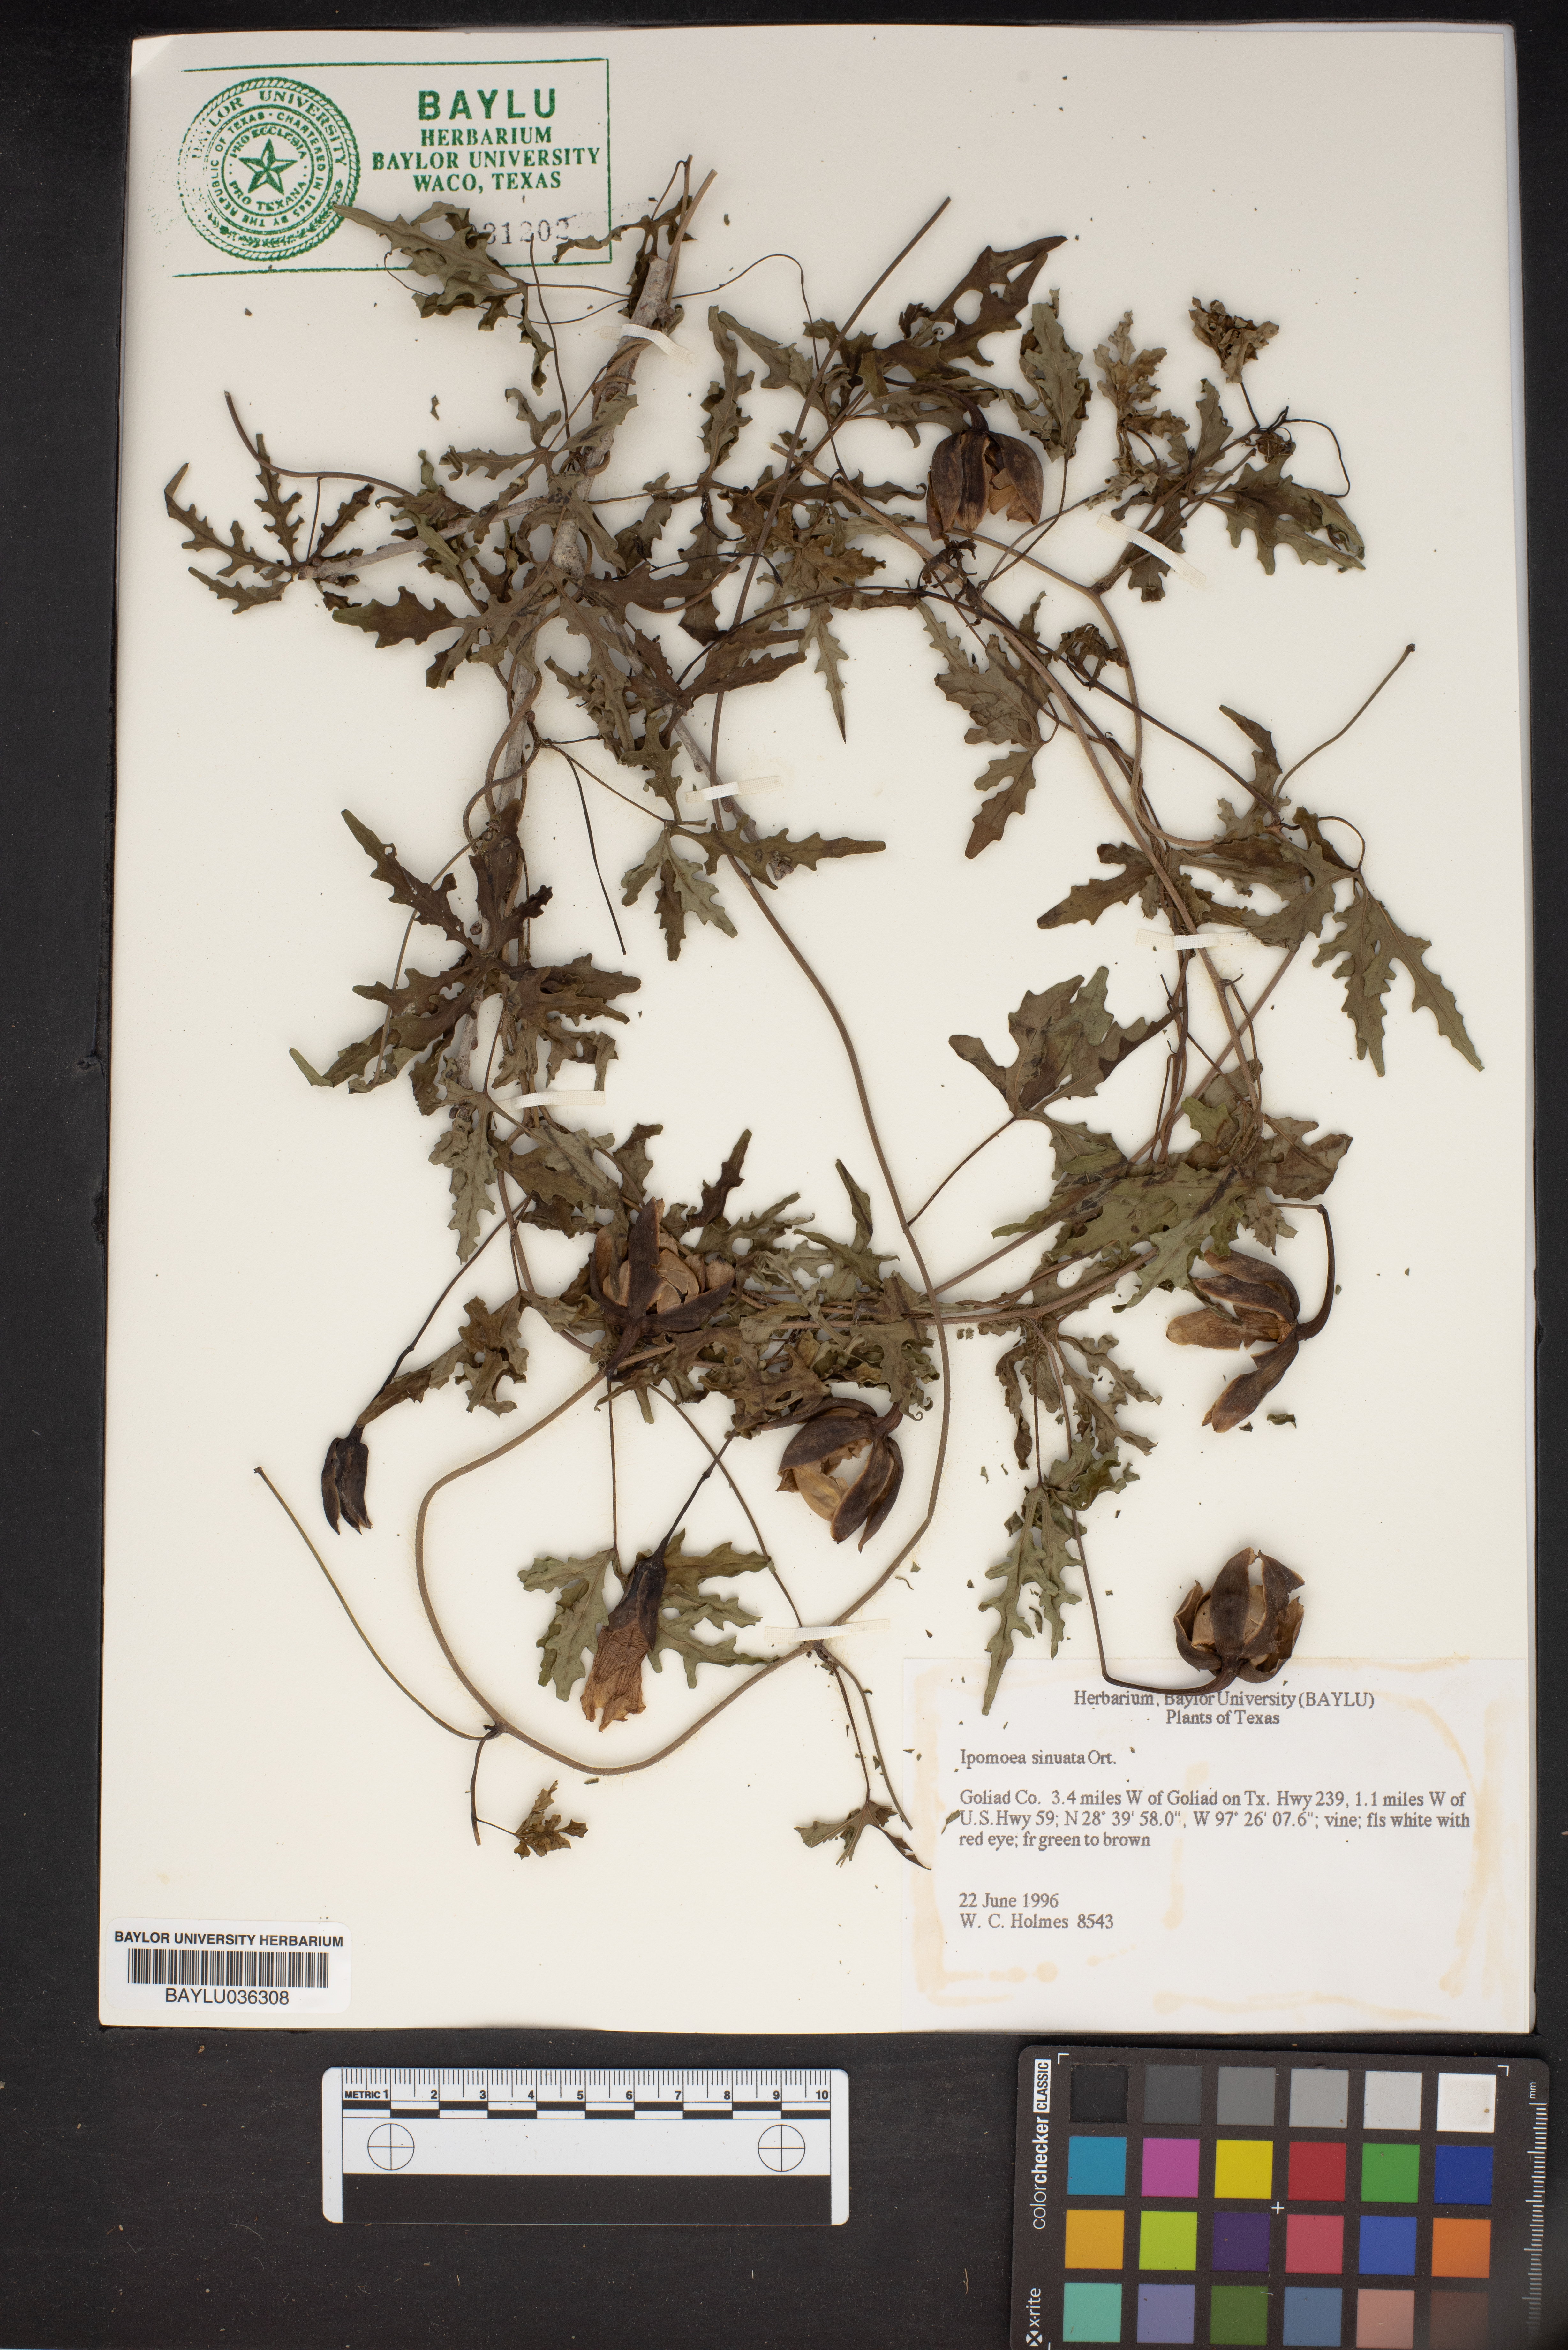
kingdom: Plantae
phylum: Tracheophyta
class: Magnoliopsida
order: Solanales
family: Convolvulaceae
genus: Distimake
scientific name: Distimake dissectus
